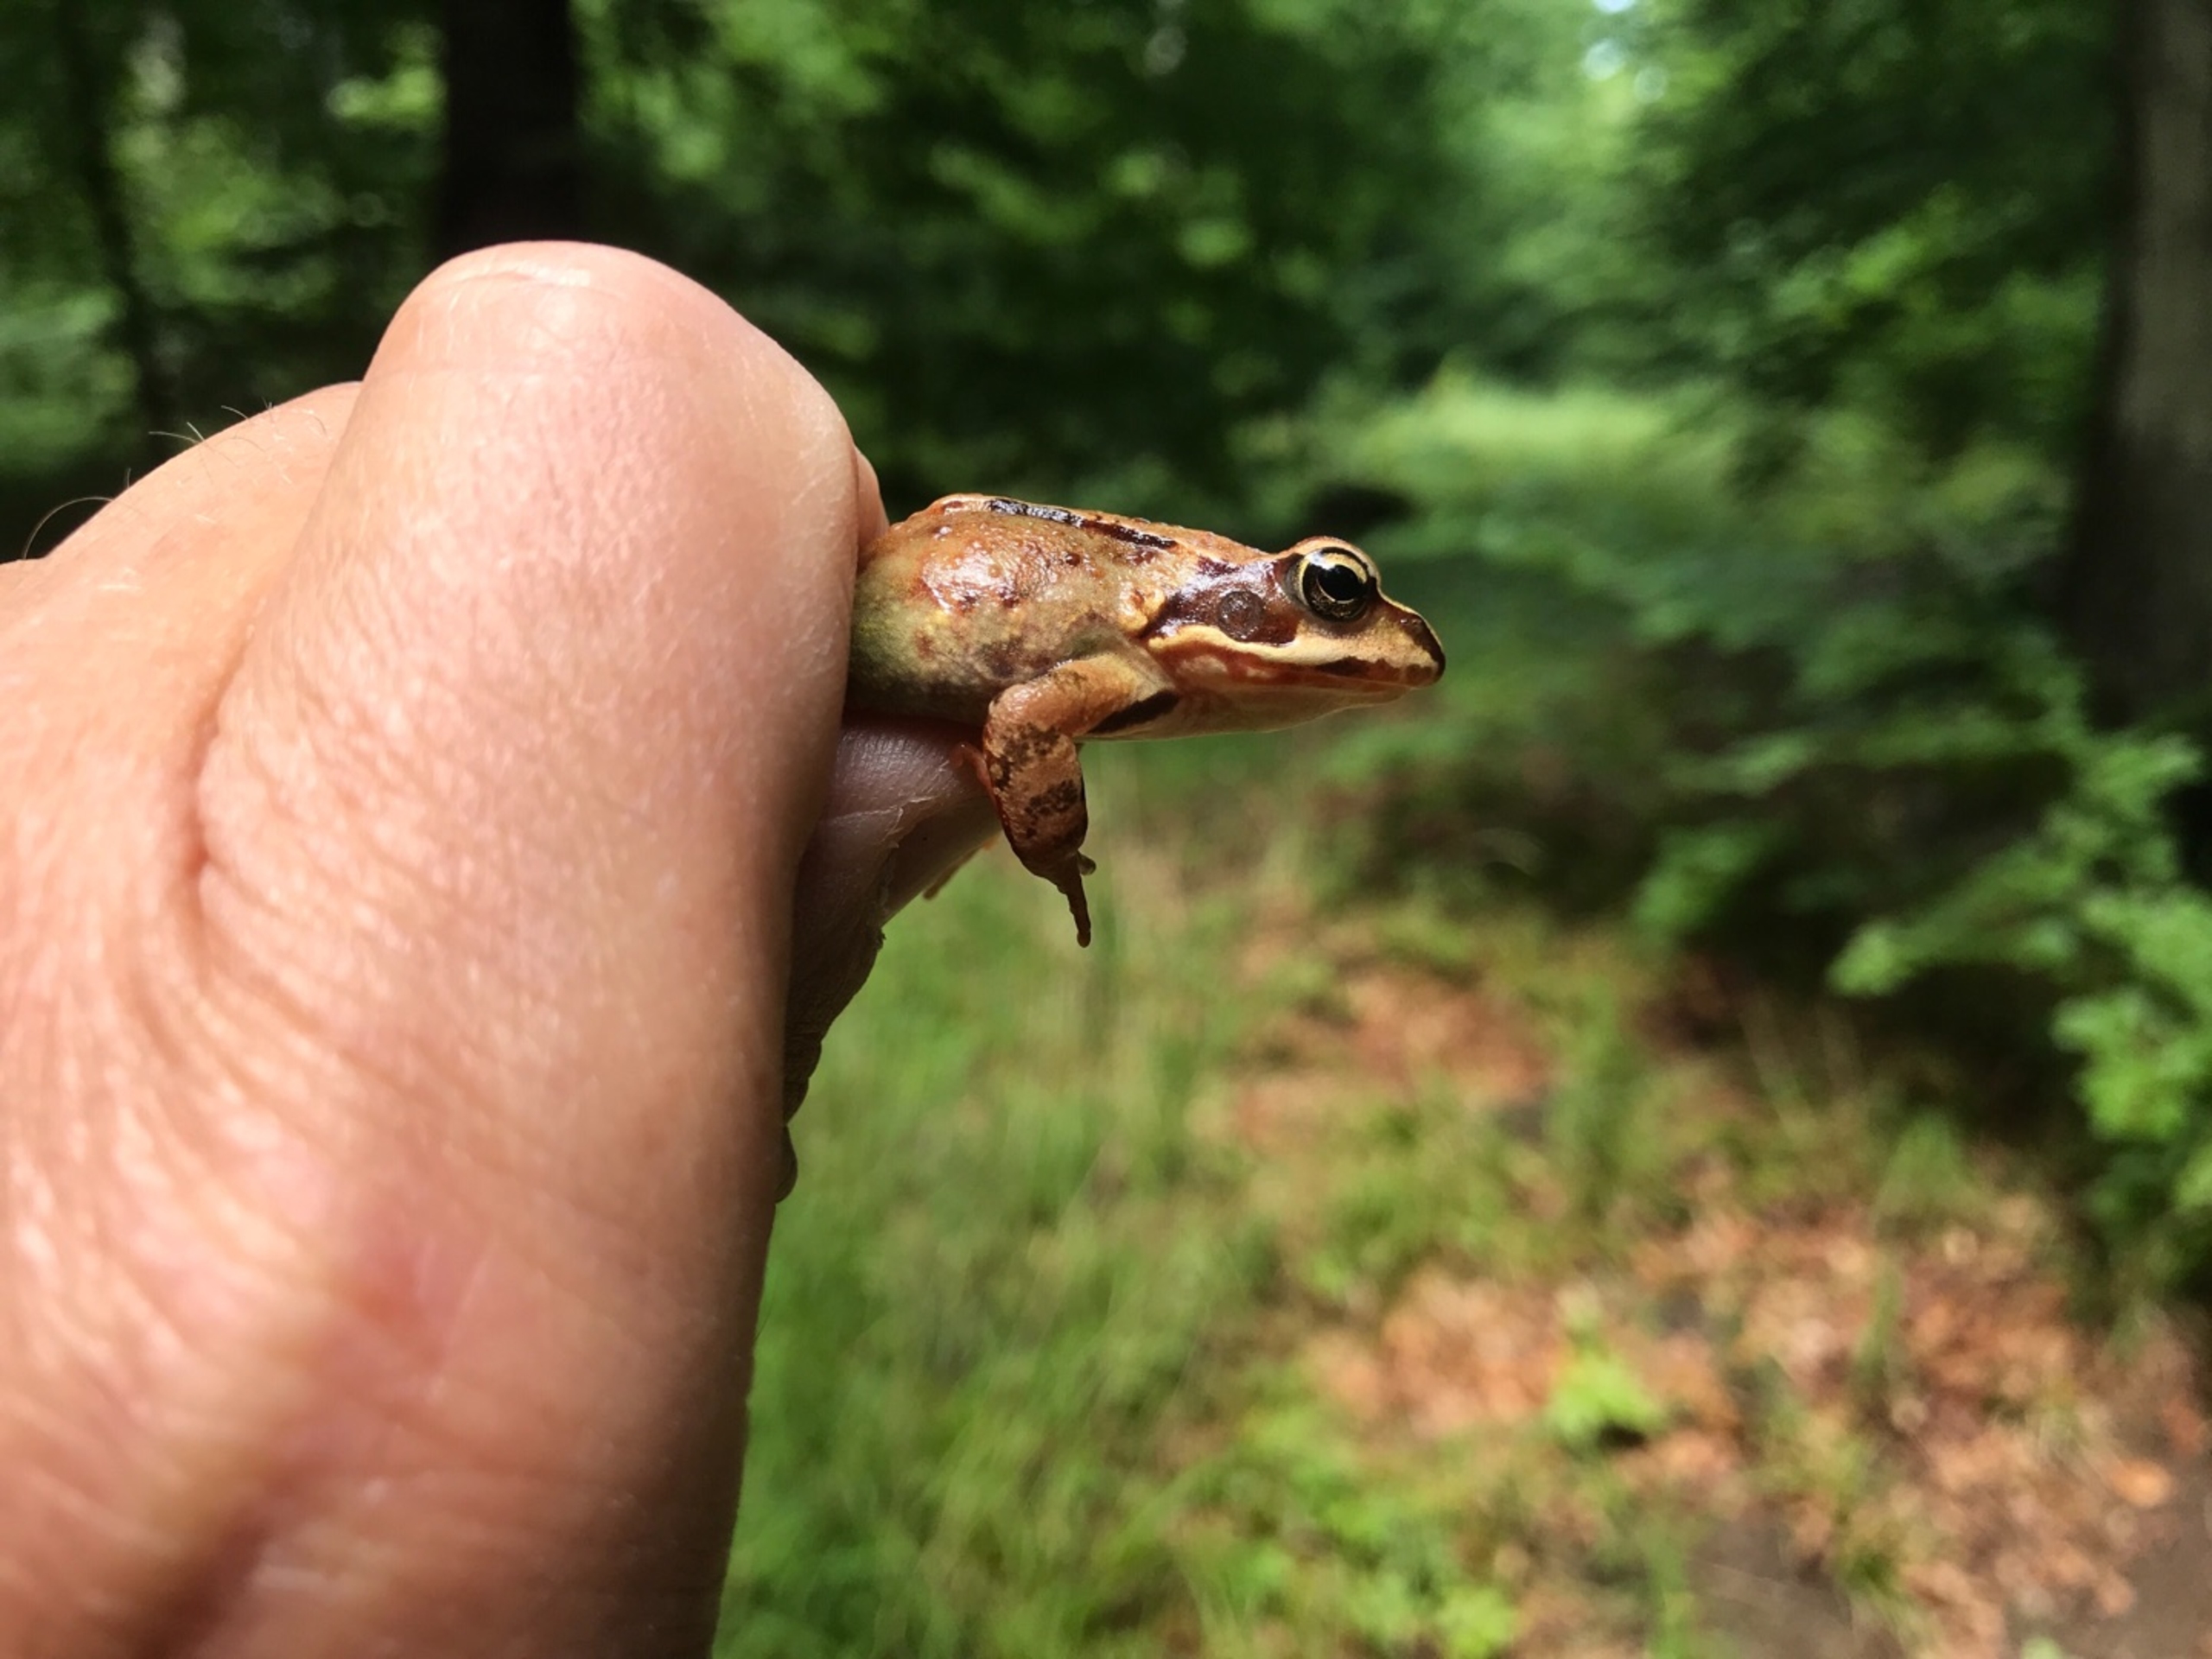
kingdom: Animalia
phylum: Chordata
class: Amphibia
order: Anura
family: Ranidae
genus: Rana
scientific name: Rana temporaria
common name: Butsnudet frø
